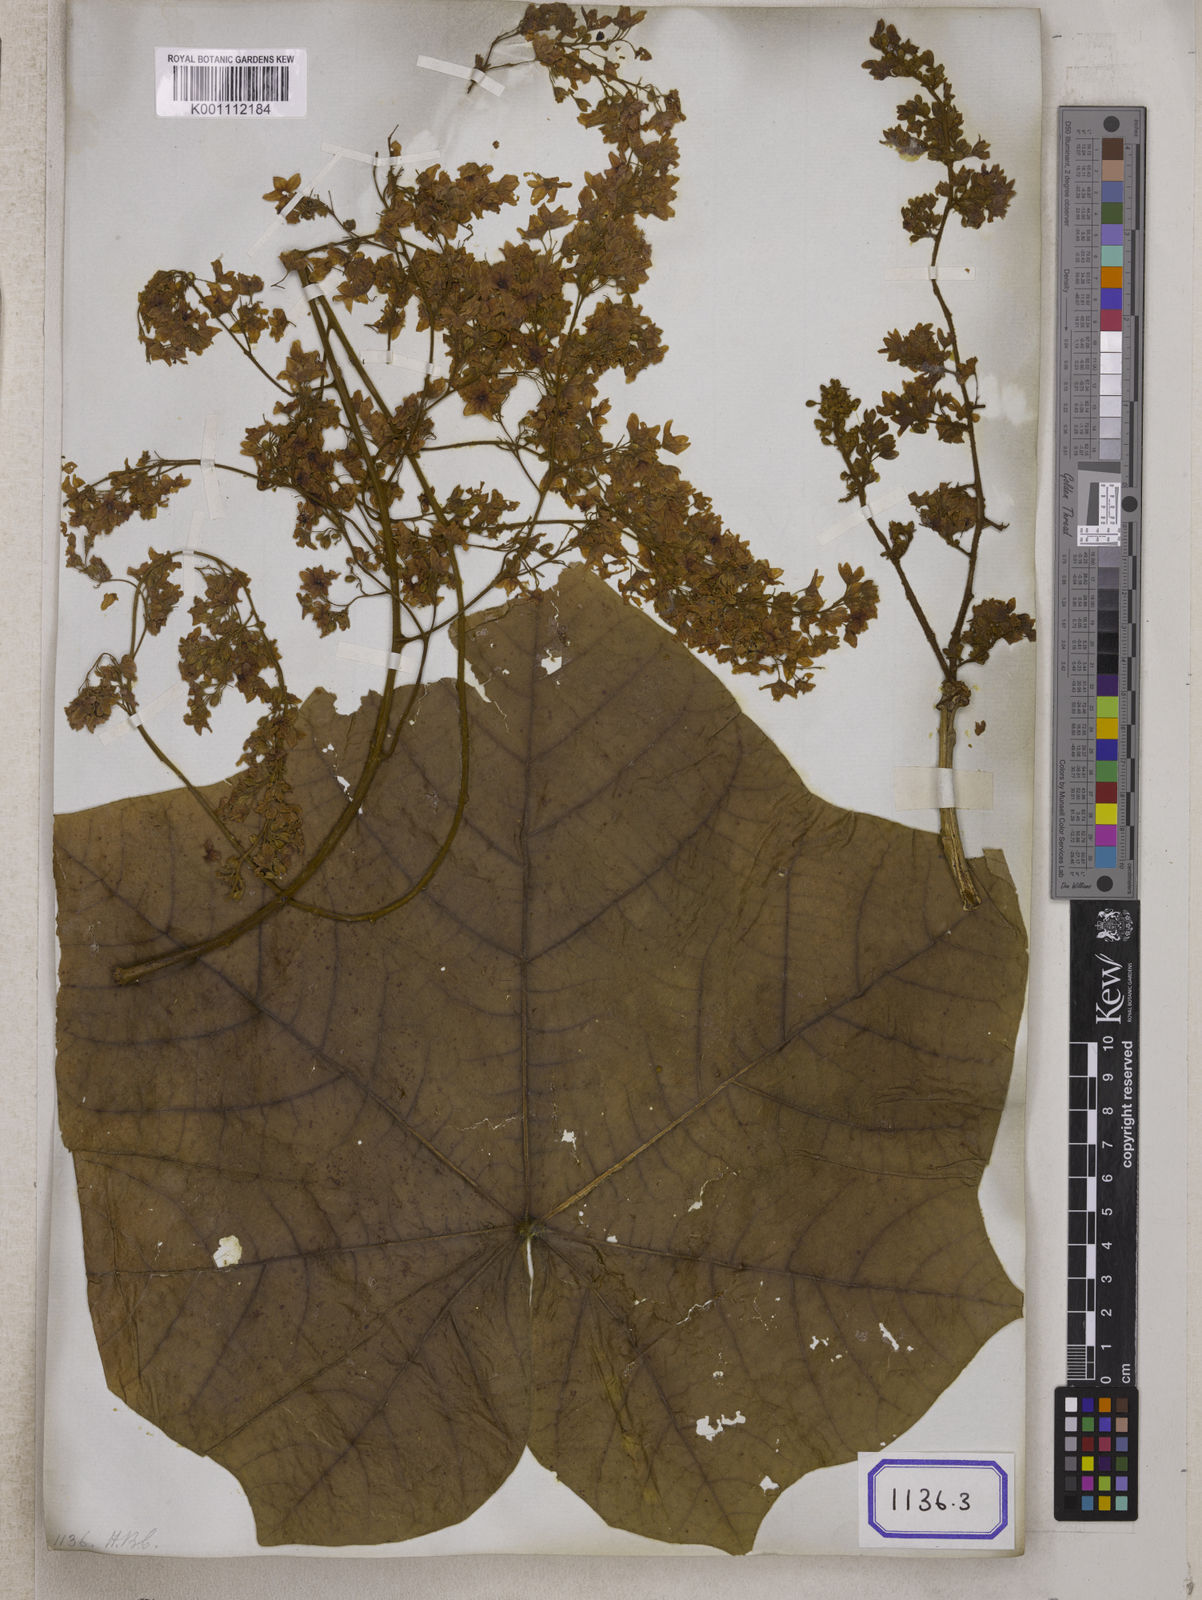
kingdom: Plantae
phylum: Tracheophyta
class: Magnoliopsida
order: Malvales
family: Malvaceae
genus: Sterculia
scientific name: Sterculia
